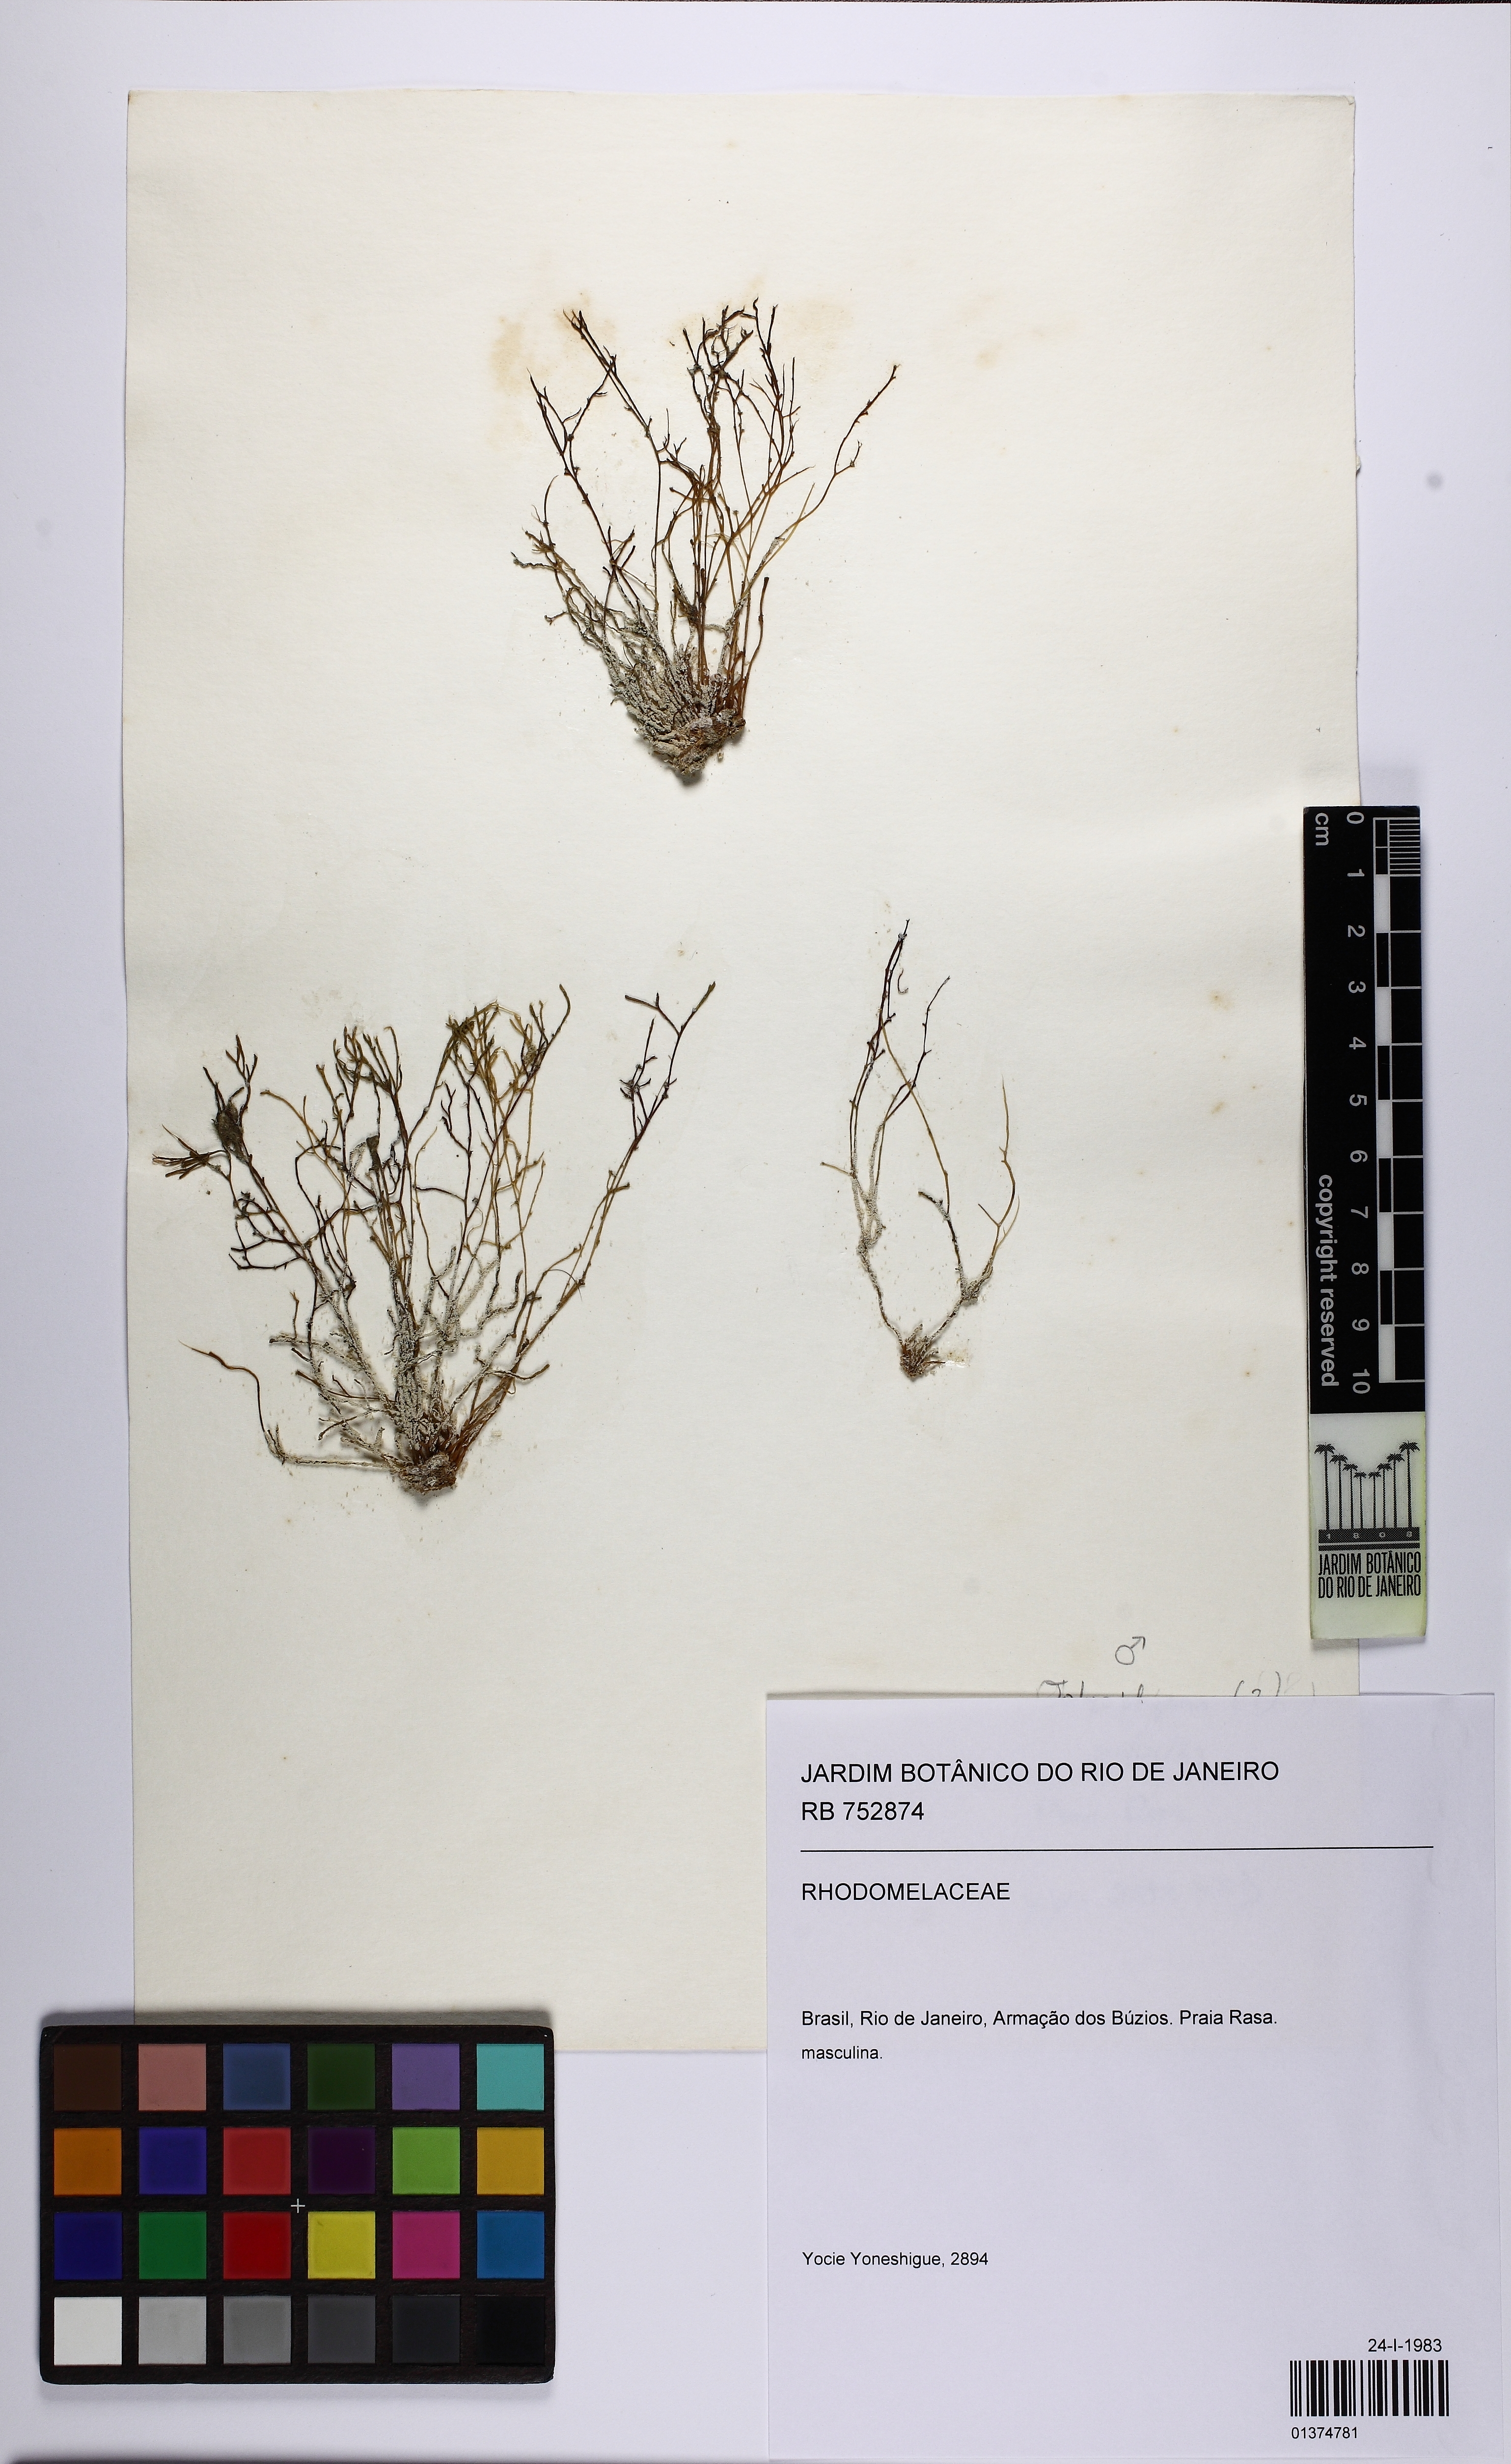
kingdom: Plantae
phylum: Rhodophyta
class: Florideophyceae
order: Ceramiales
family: Rhodomelaceae
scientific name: Rhodomelaceae
